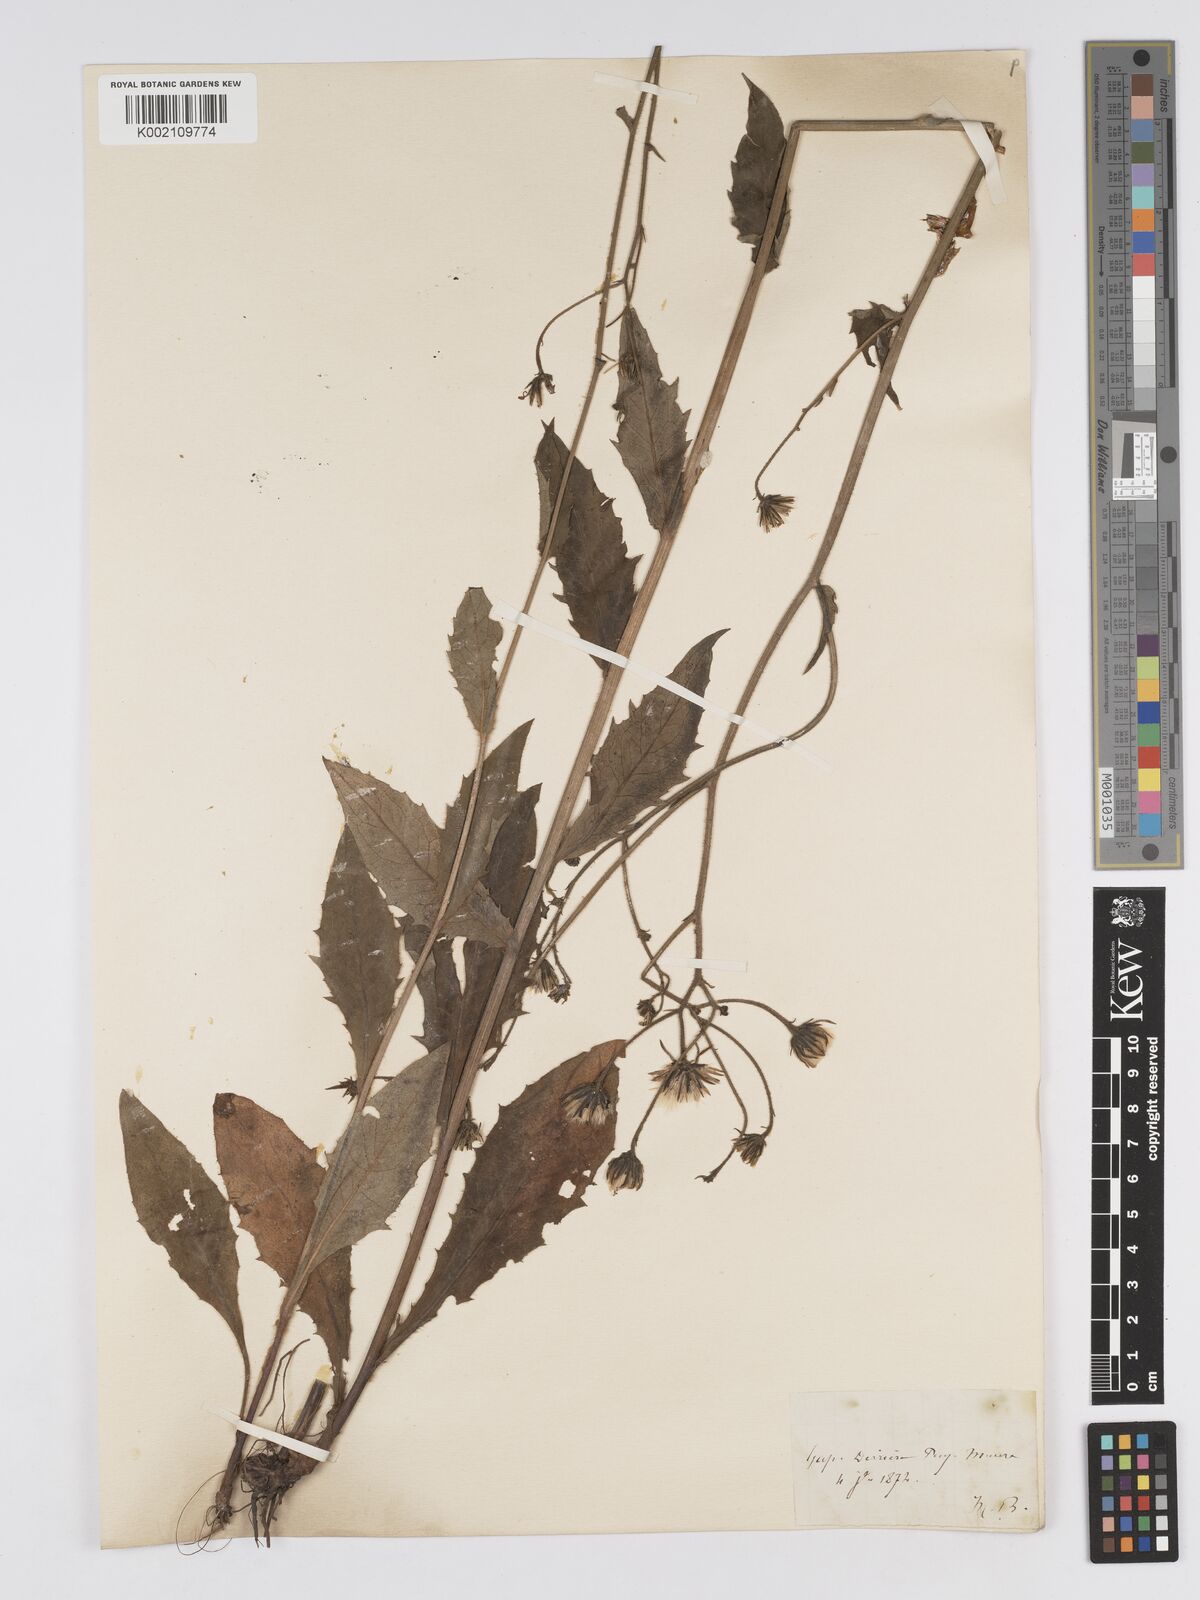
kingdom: Plantae
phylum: Tracheophyta
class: Magnoliopsida
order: Asterales
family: Asteraceae
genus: Hieracium
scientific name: Hieracium australe
